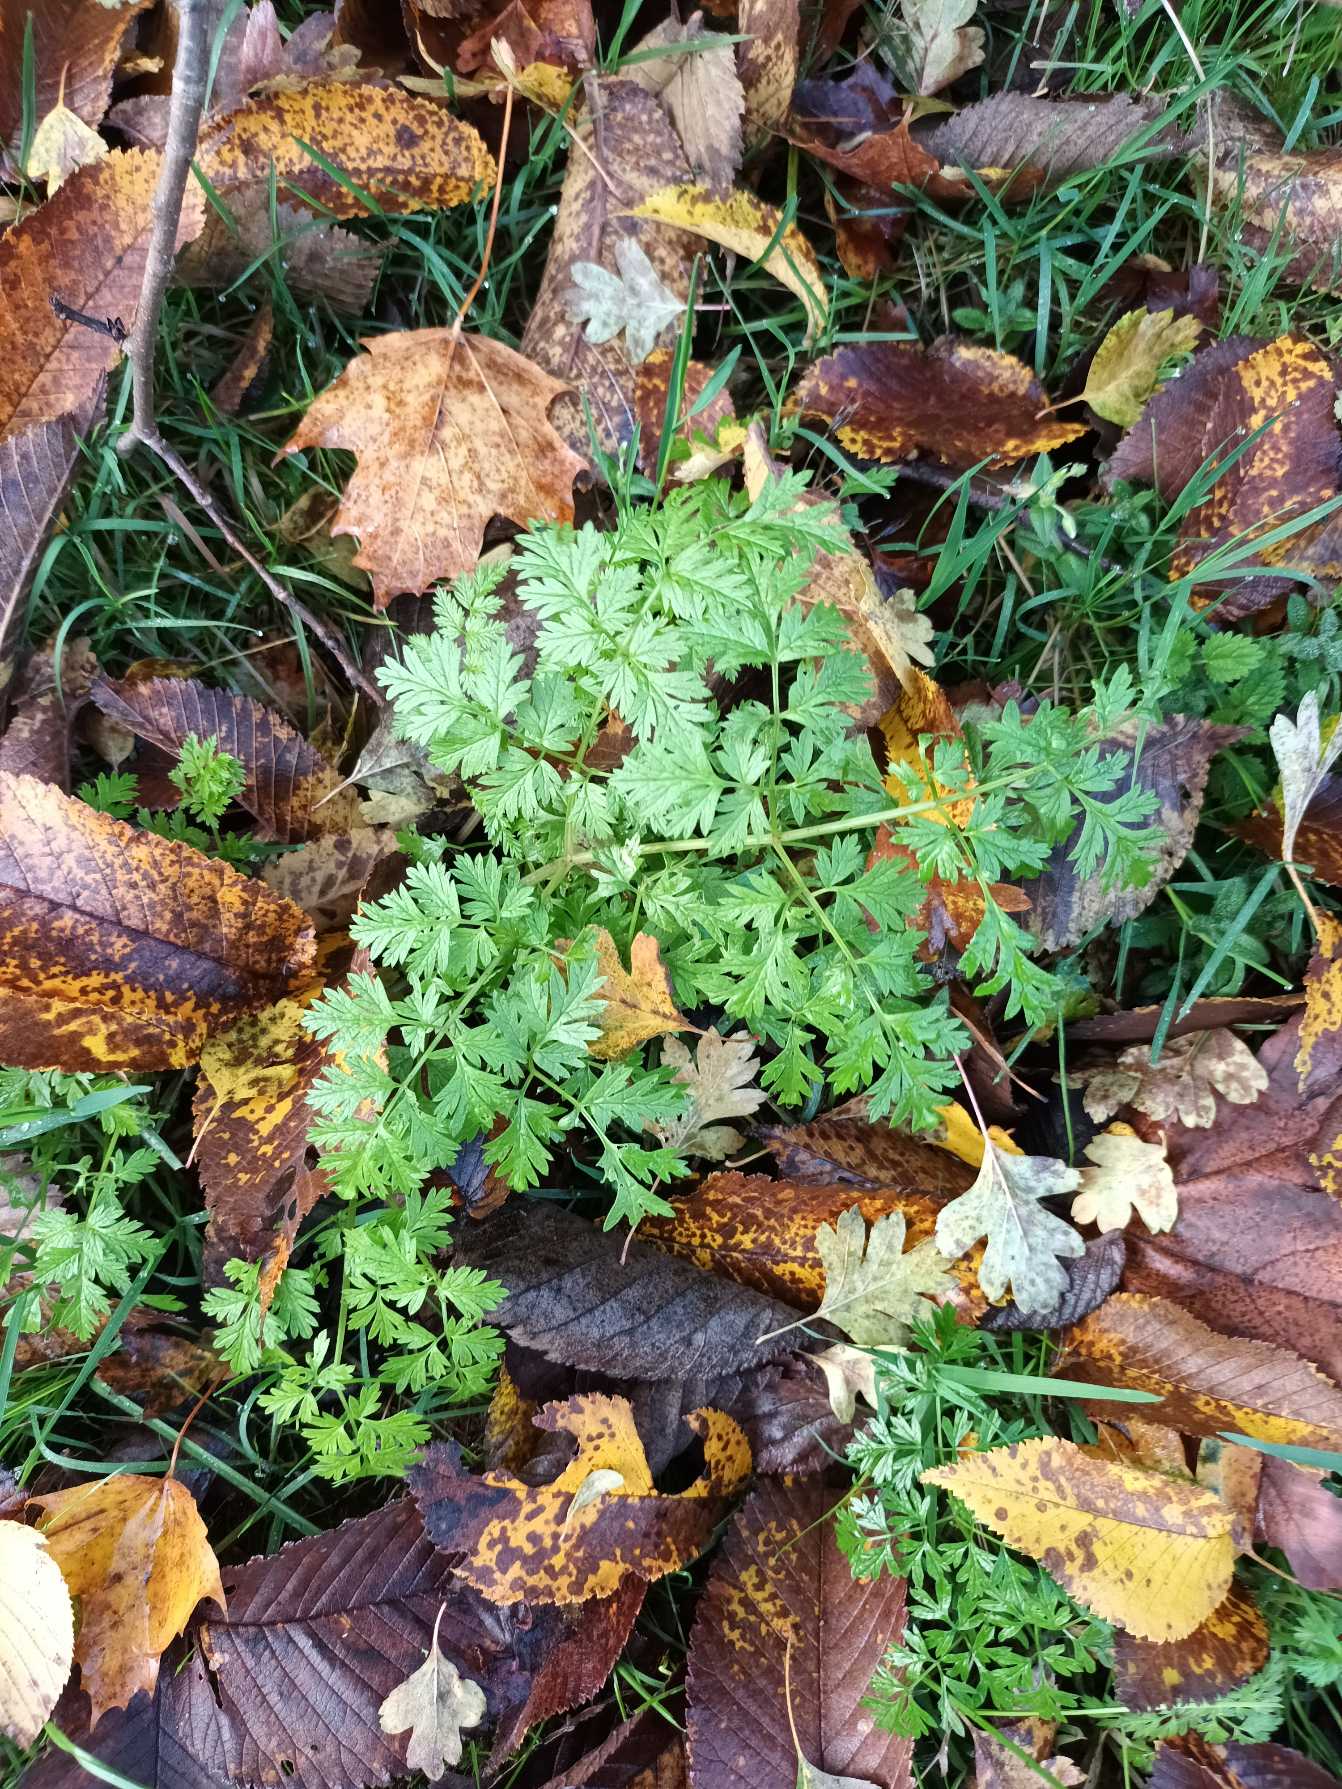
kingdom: Plantae
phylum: Tracheophyta
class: Magnoliopsida
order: Apiales
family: Apiaceae
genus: Anthriscus
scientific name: Anthriscus sylvestris
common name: Vild kørvel
